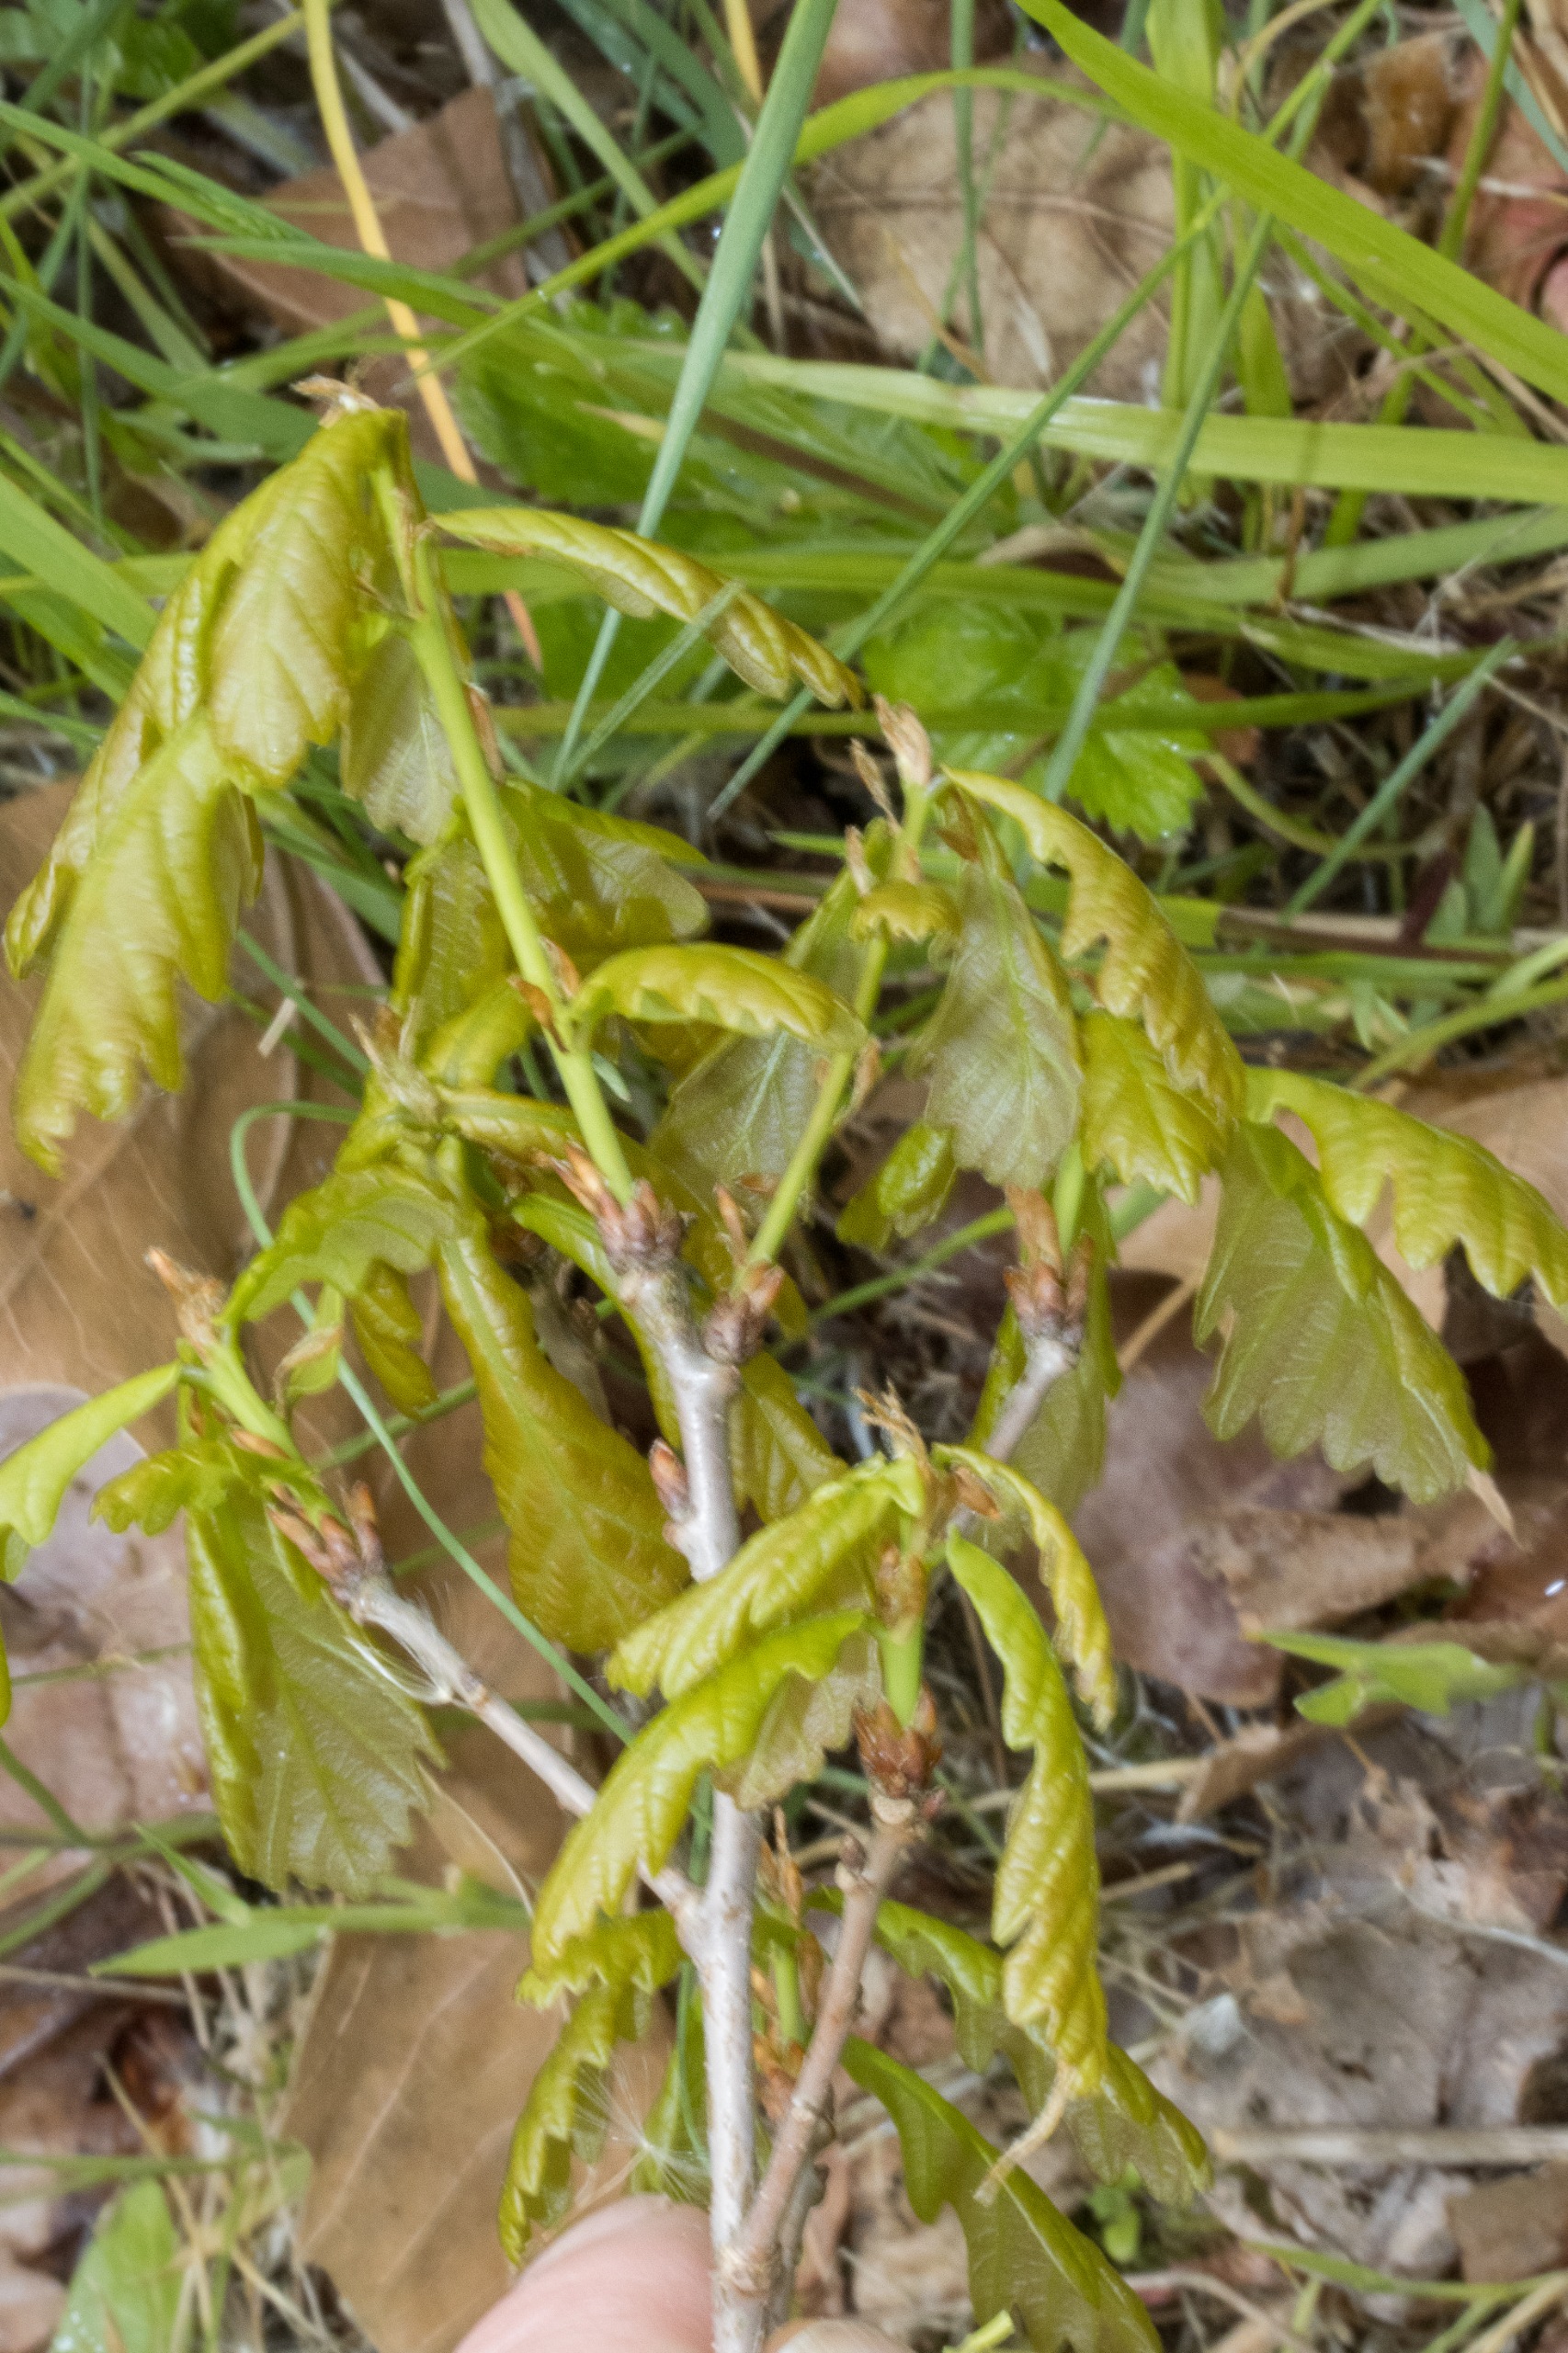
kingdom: Plantae
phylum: Tracheophyta
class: Magnoliopsida
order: Fagales
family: Fagaceae
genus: Quercus
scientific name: Quercus robur
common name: Stilk-eg/almindelig eg
